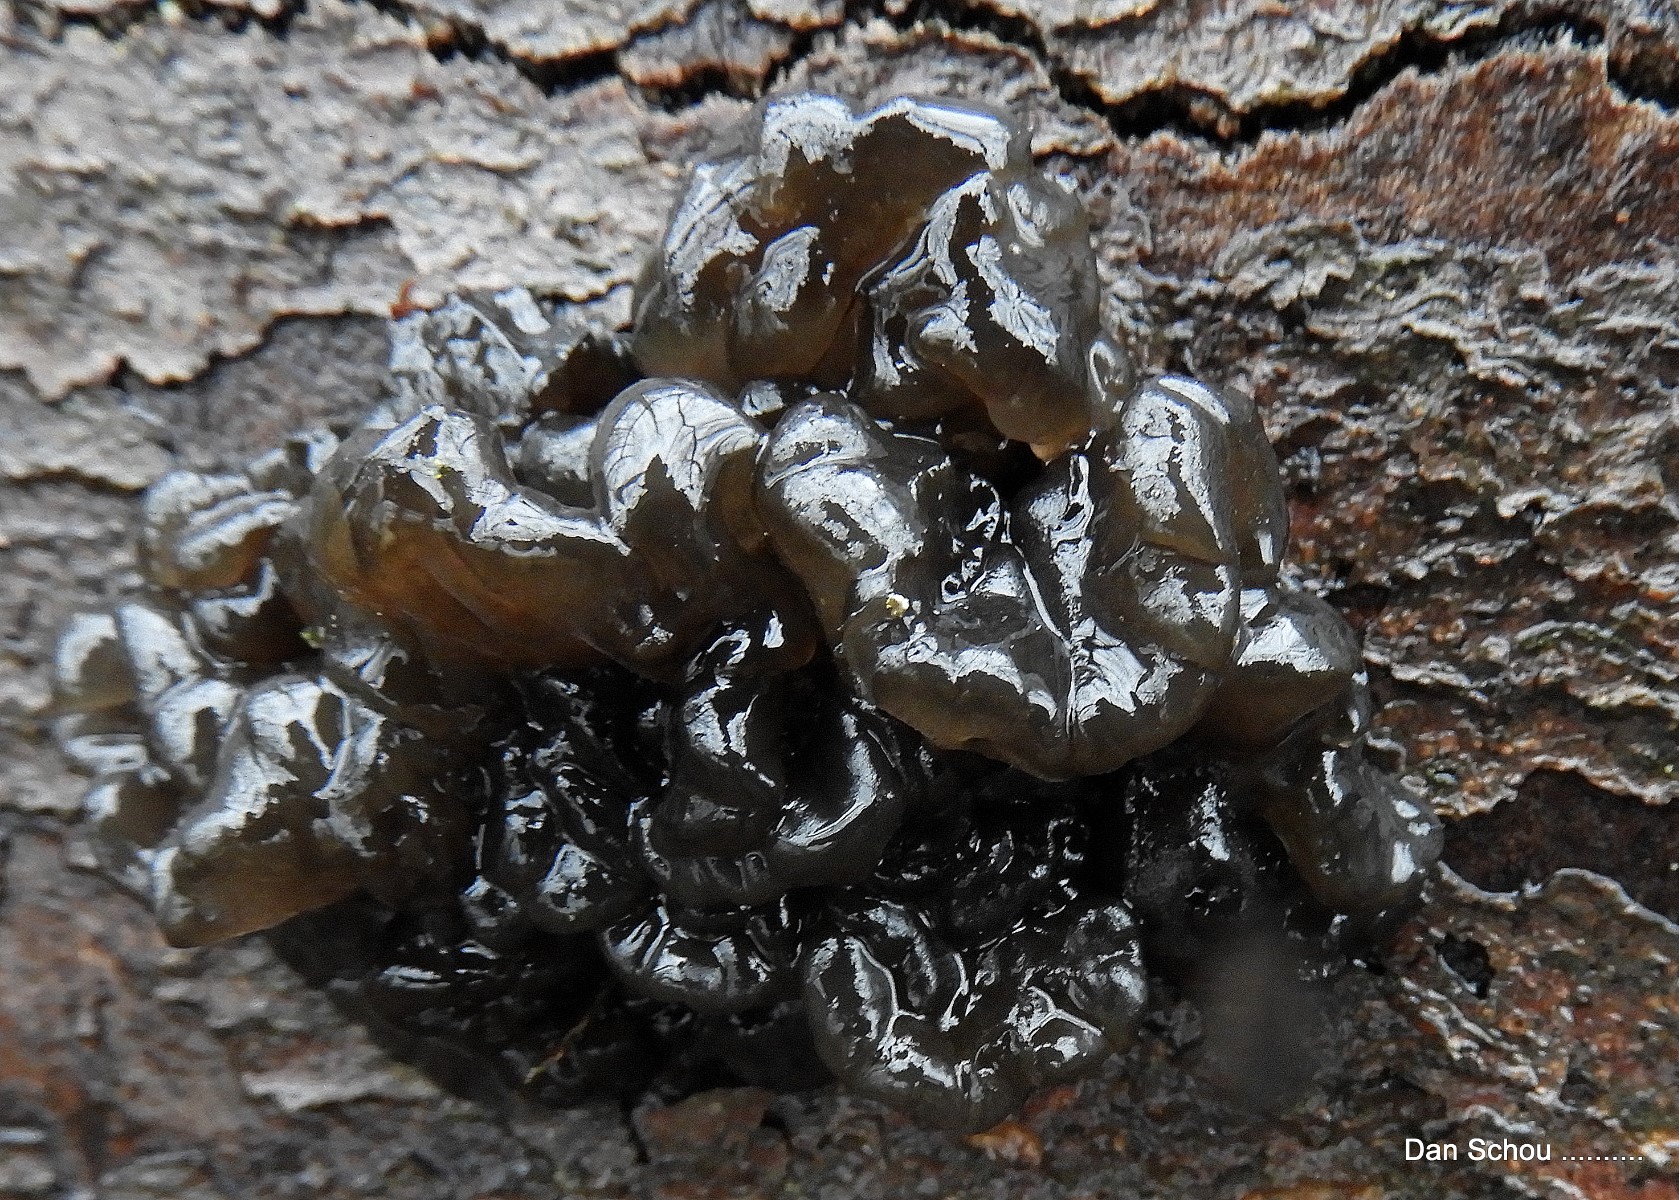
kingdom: Fungi
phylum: Basidiomycota
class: Agaricomycetes
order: Auriculariales
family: Auriculariaceae
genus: Exidia
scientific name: Exidia nigricans
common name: almindelig bævretop
